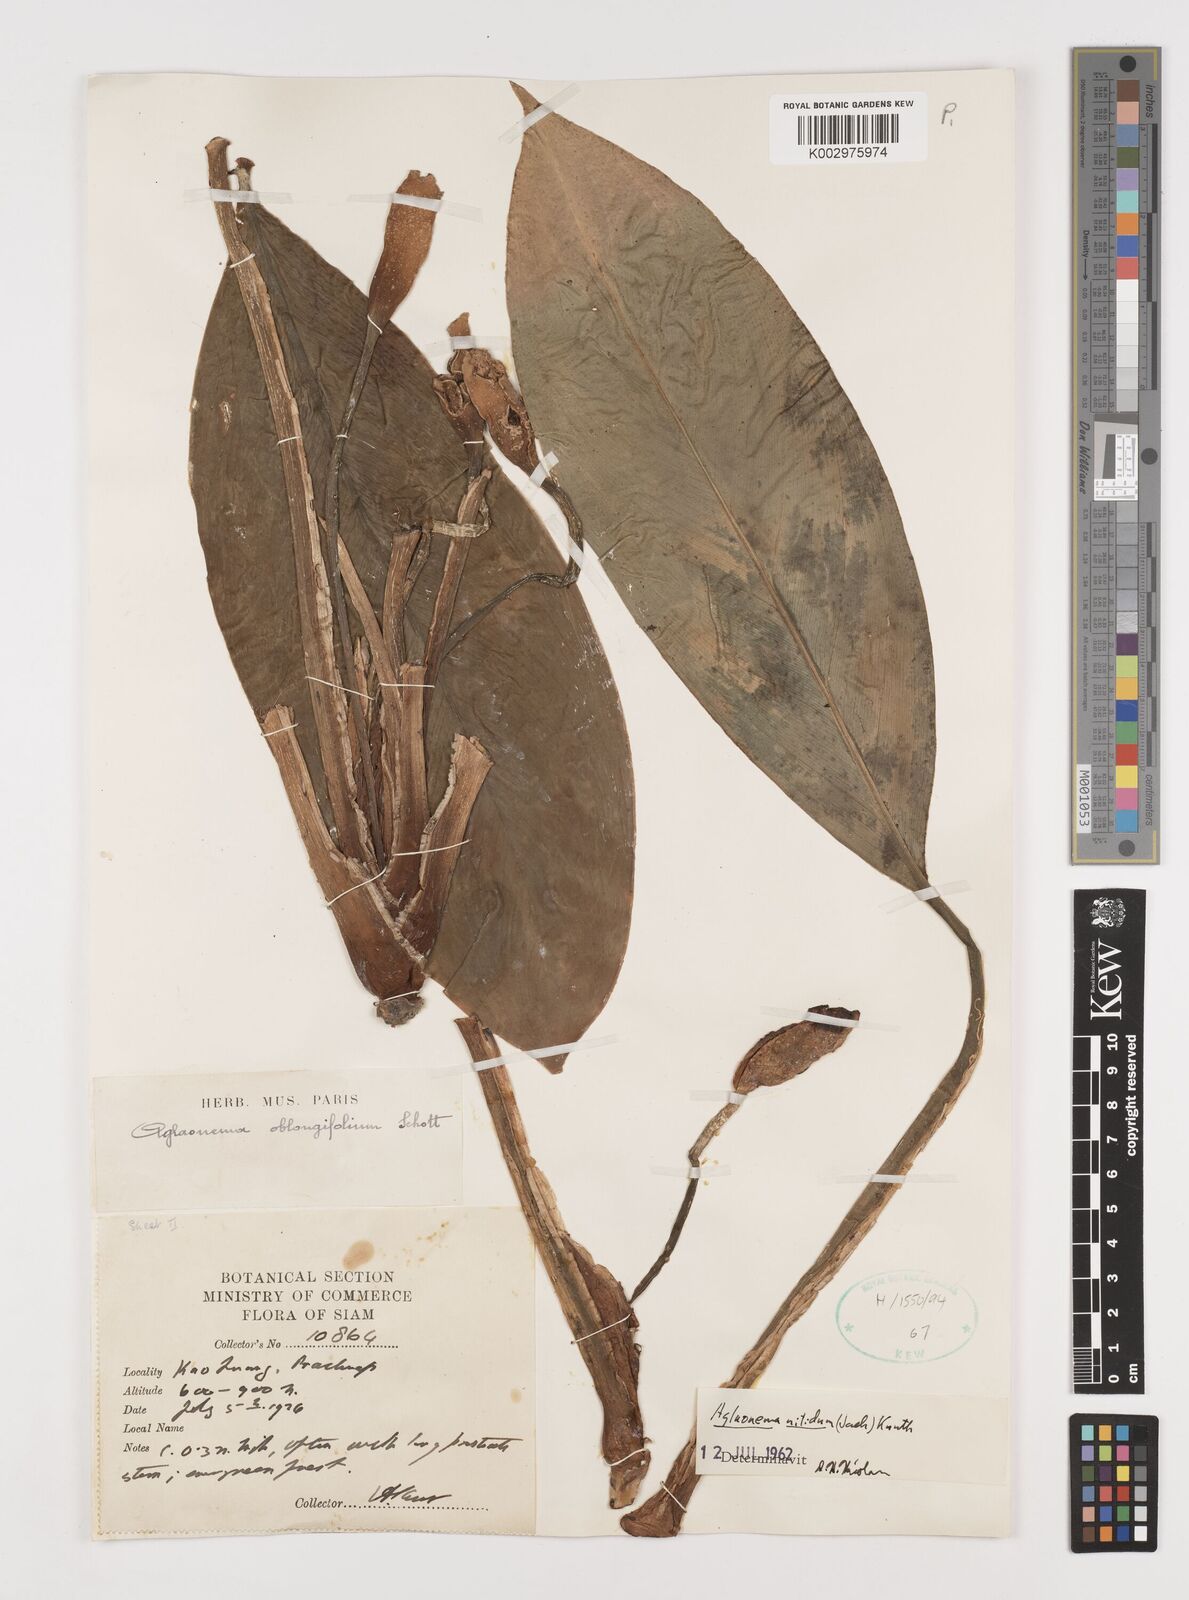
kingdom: Plantae
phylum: Tracheophyta
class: Liliopsida
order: Alismatales
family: Araceae
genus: Aglaonema
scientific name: Aglaonema nitidum
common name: Aglaonema aroid
